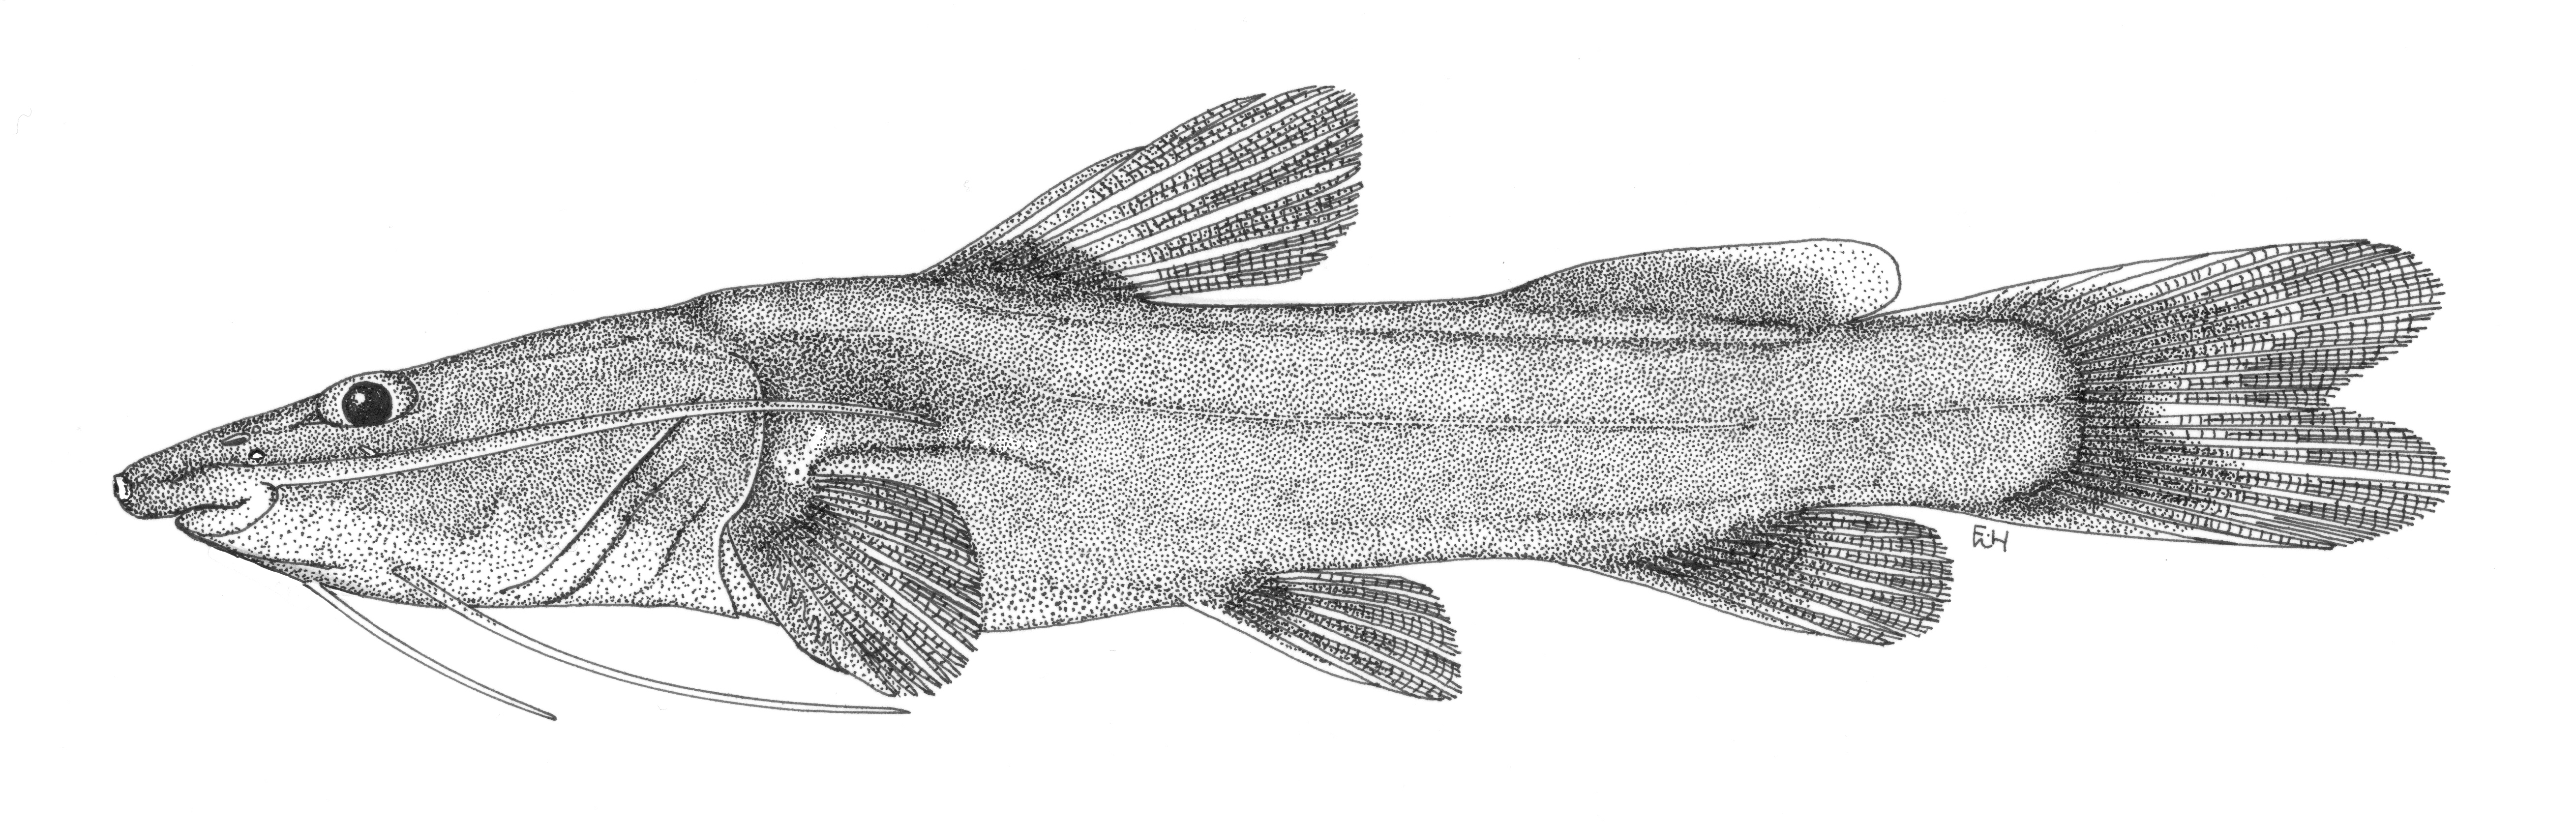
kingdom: Animalia
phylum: Chordata
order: Siluriformes
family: Claroteidae
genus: Phyllonemus
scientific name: Phyllonemus
